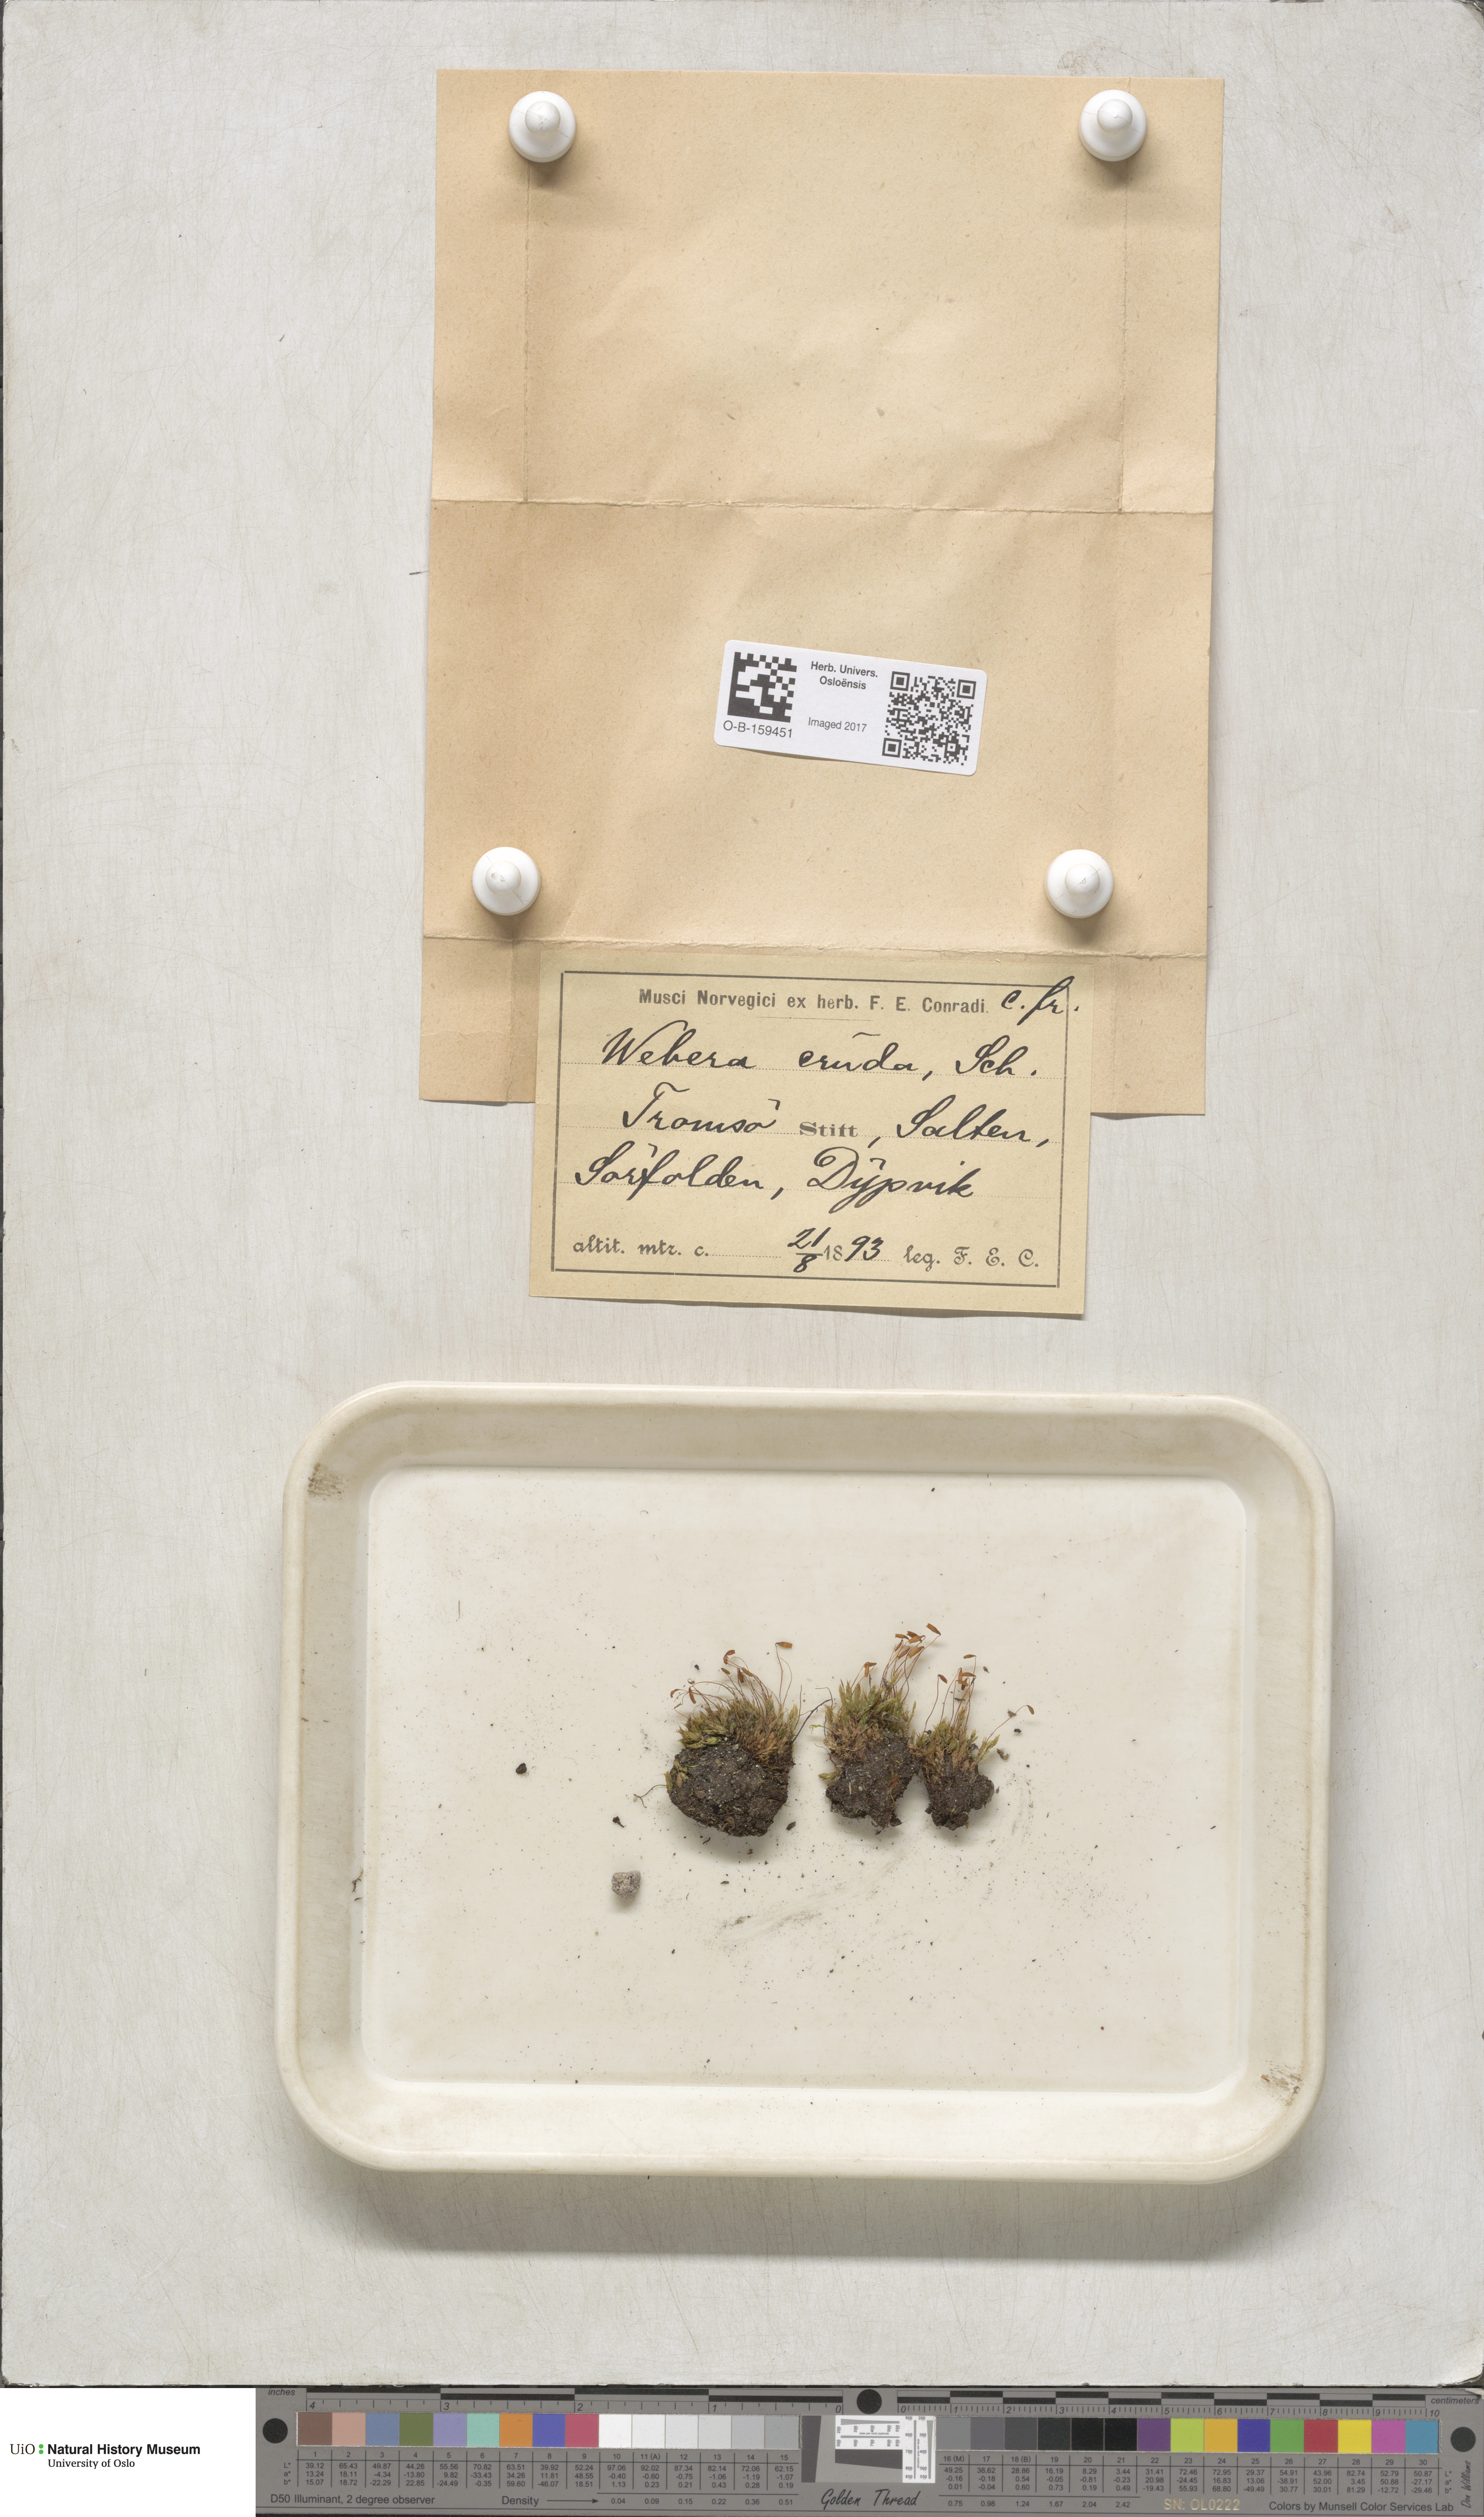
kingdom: Plantae
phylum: Bryophyta
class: Bryopsida
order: Bryales
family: Mniaceae
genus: Pohlia
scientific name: Pohlia cruda
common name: Opal nodding moss
